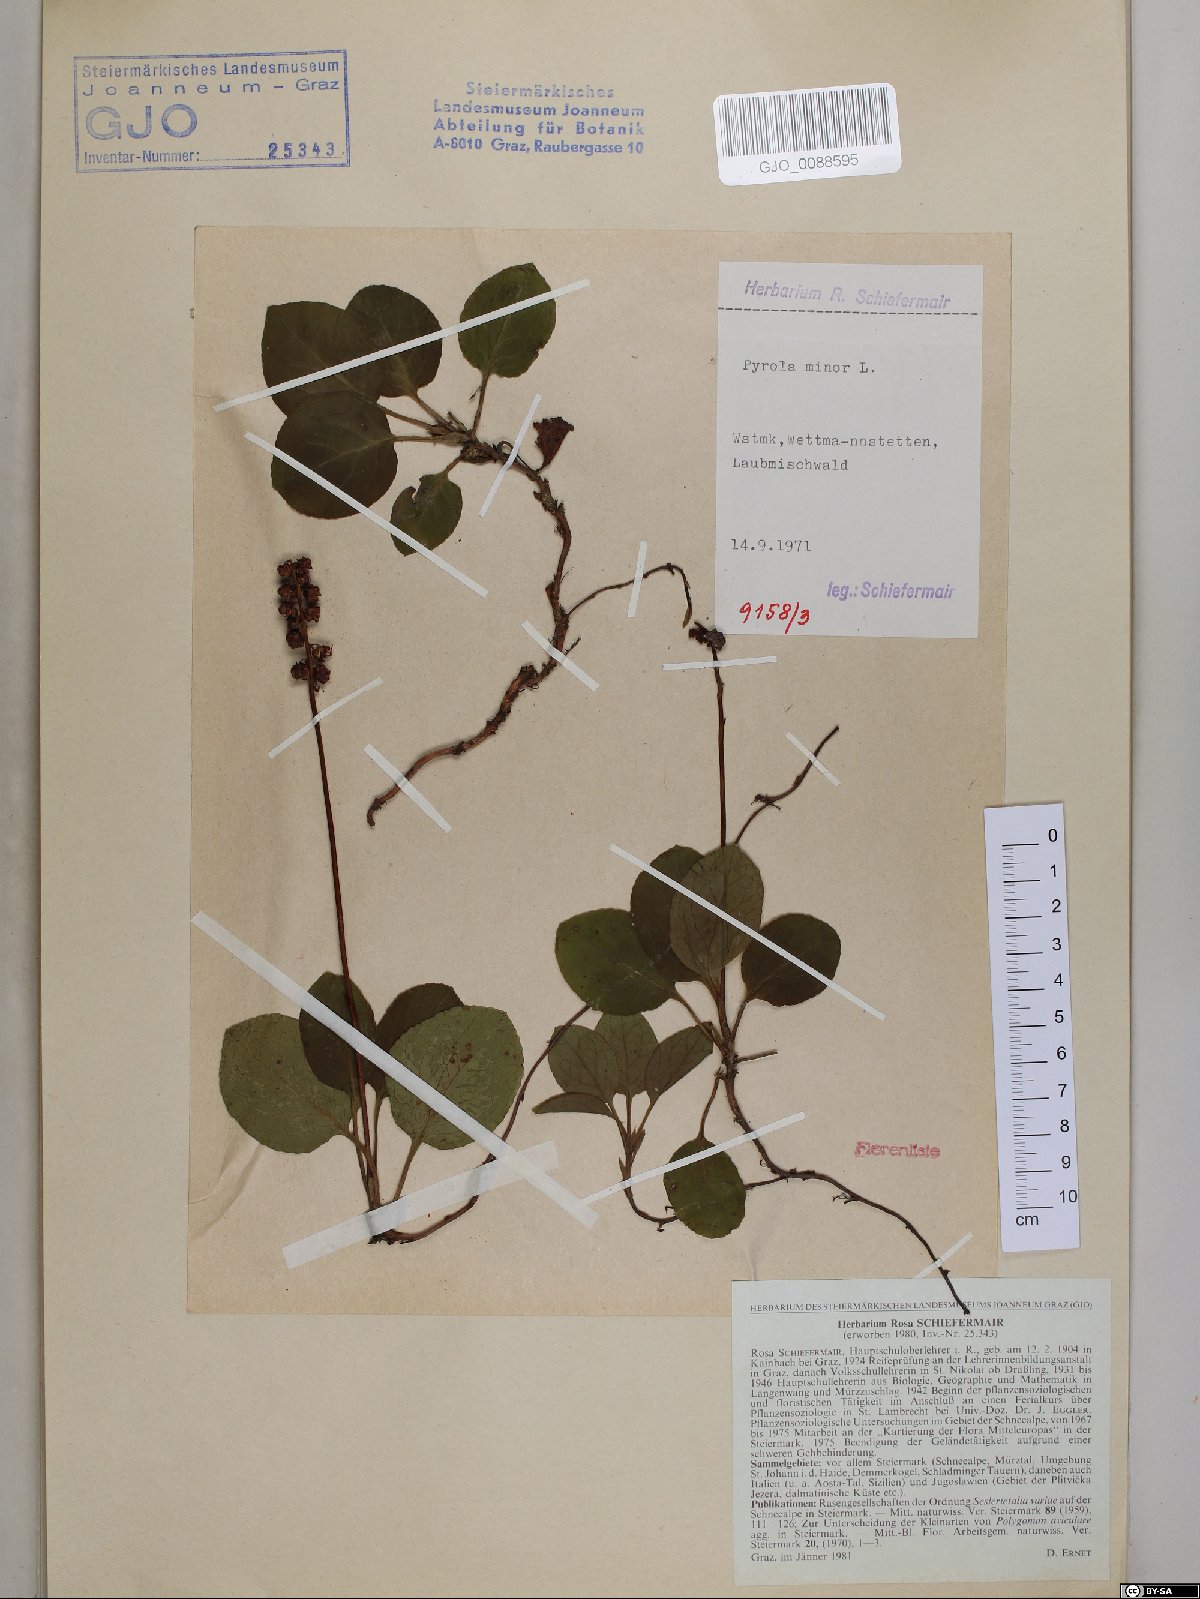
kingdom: Plantae
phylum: Tracheophyta
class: Magnoliopsida
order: Ericales
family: Ericaceae
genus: Pyrola
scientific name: Pyrola minor
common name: Common wintergreen
